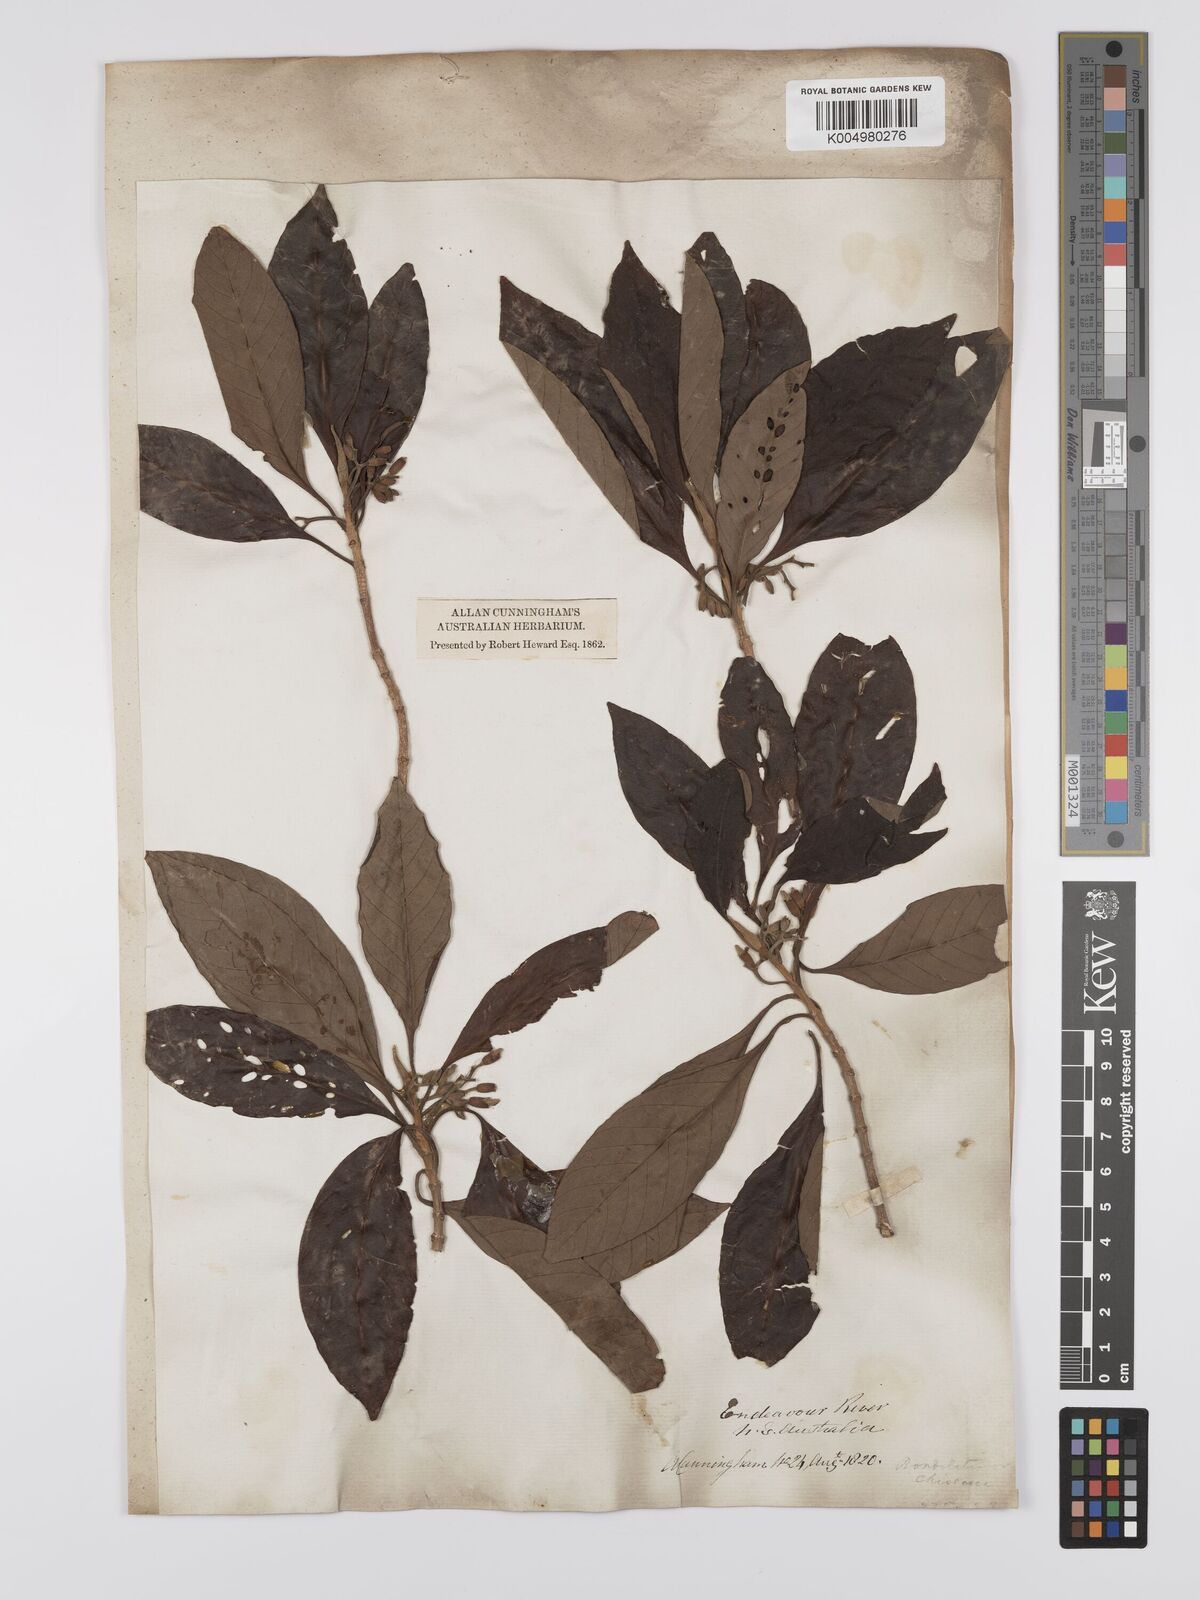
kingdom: Plantae
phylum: Tracheophyta
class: Magnoliopsida
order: Gentianales
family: Rubiaceae
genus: Timonius
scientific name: Timonius timon
